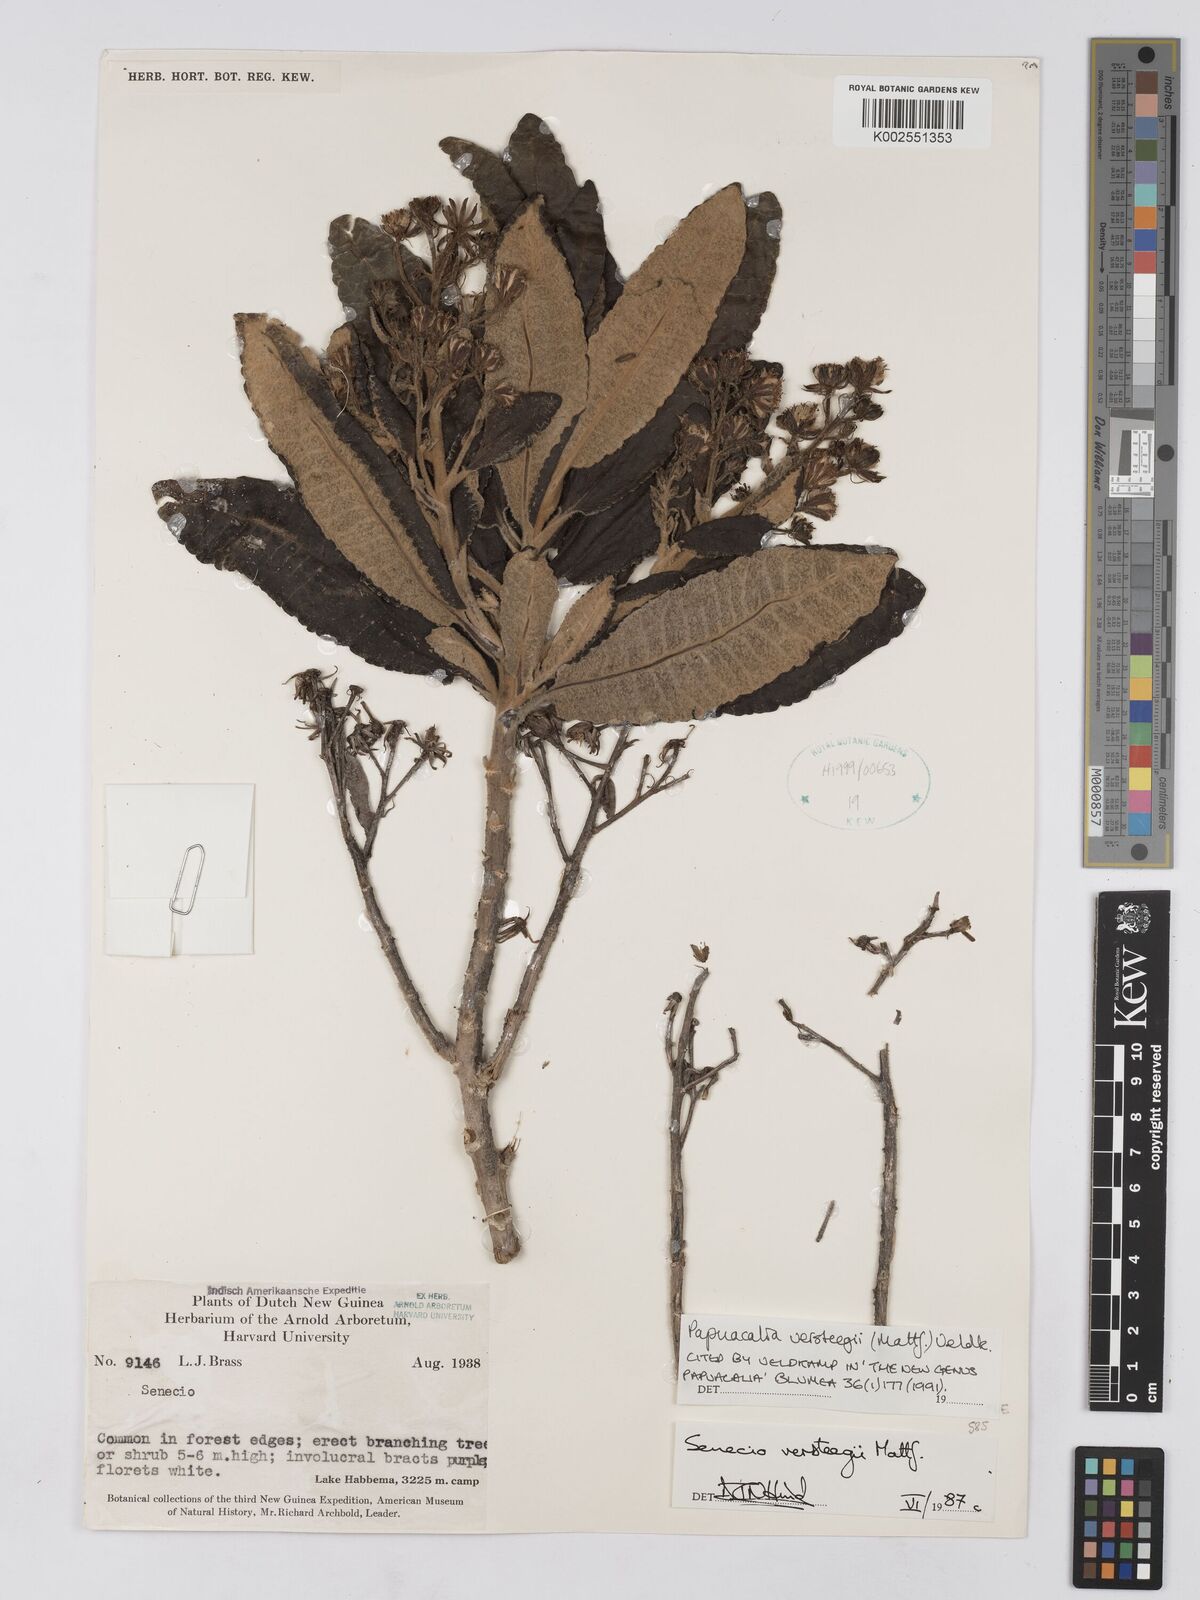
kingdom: Plantae
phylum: Tracheophyta
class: Magnoliopsida
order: Asterales
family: Asteraceae
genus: Papuacalia
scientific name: Papuacalia versteegii
